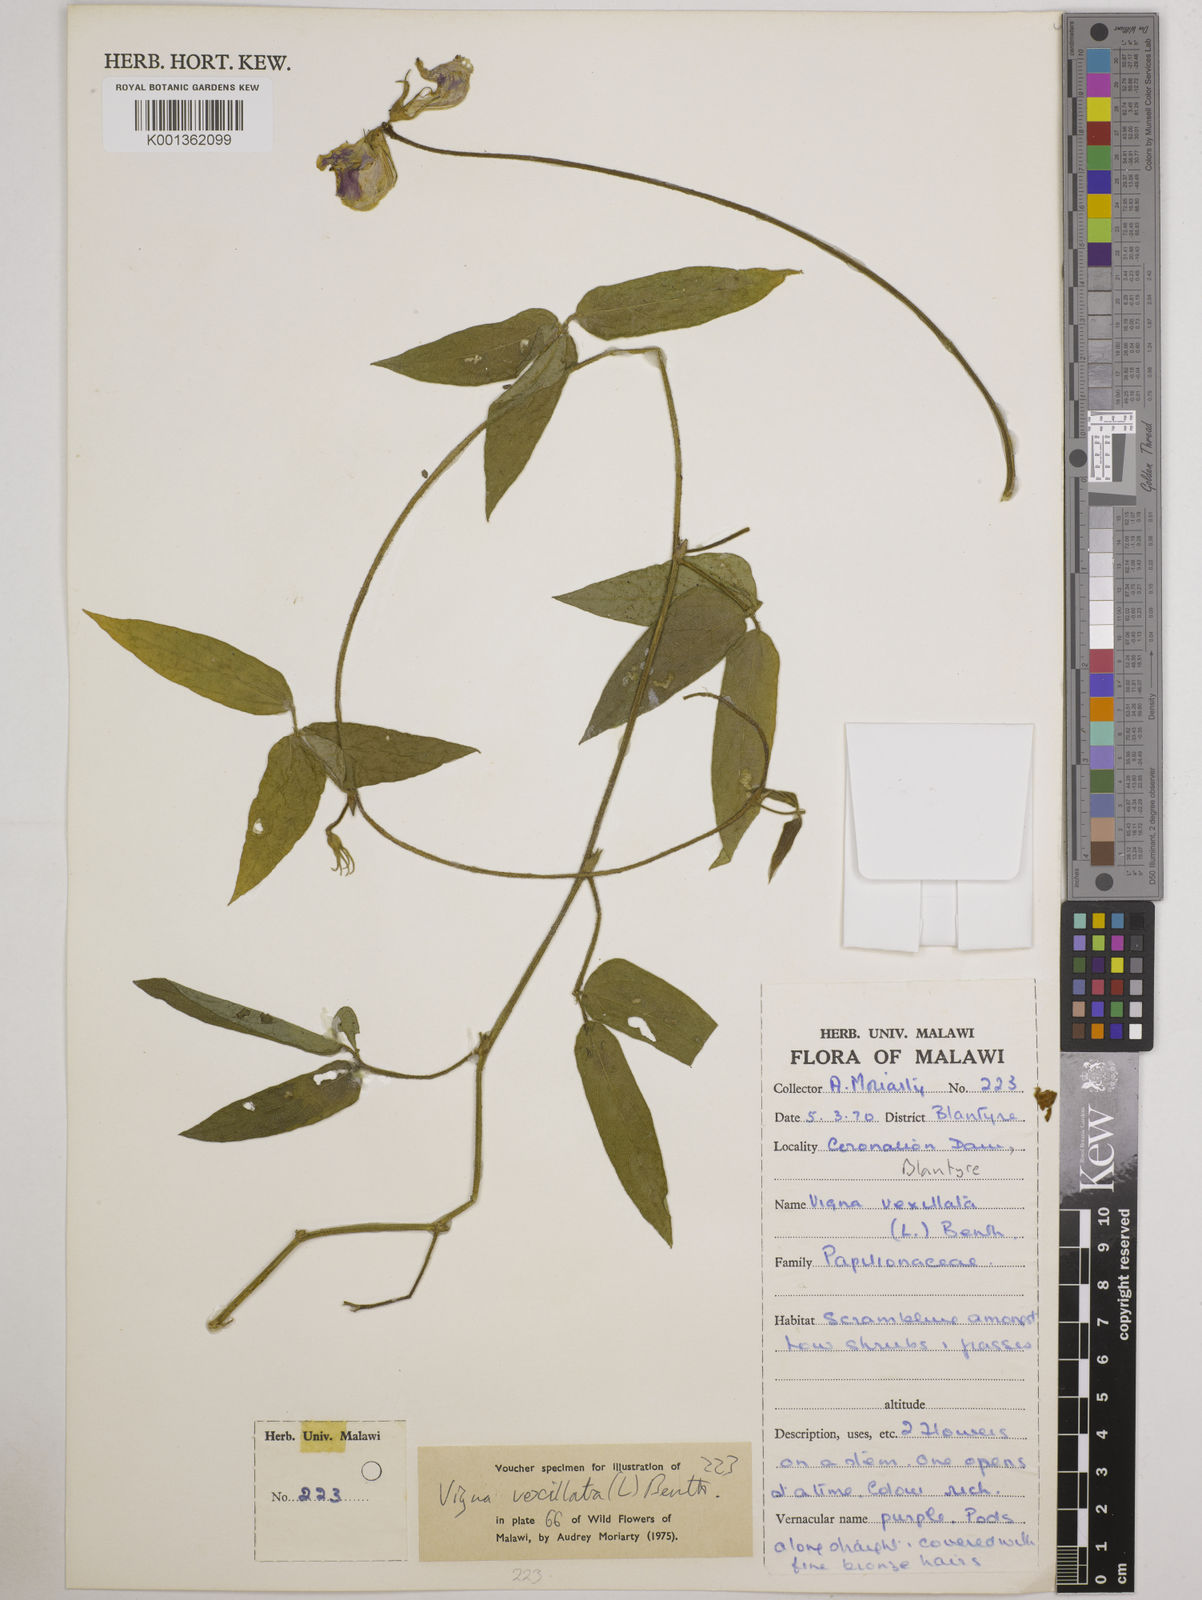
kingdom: Plantae
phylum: Tracheophyta
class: Magnoliopsida
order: Fabales
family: Fabaceae
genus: Vigna
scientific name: Vigna vexillata
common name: Zombi pea
